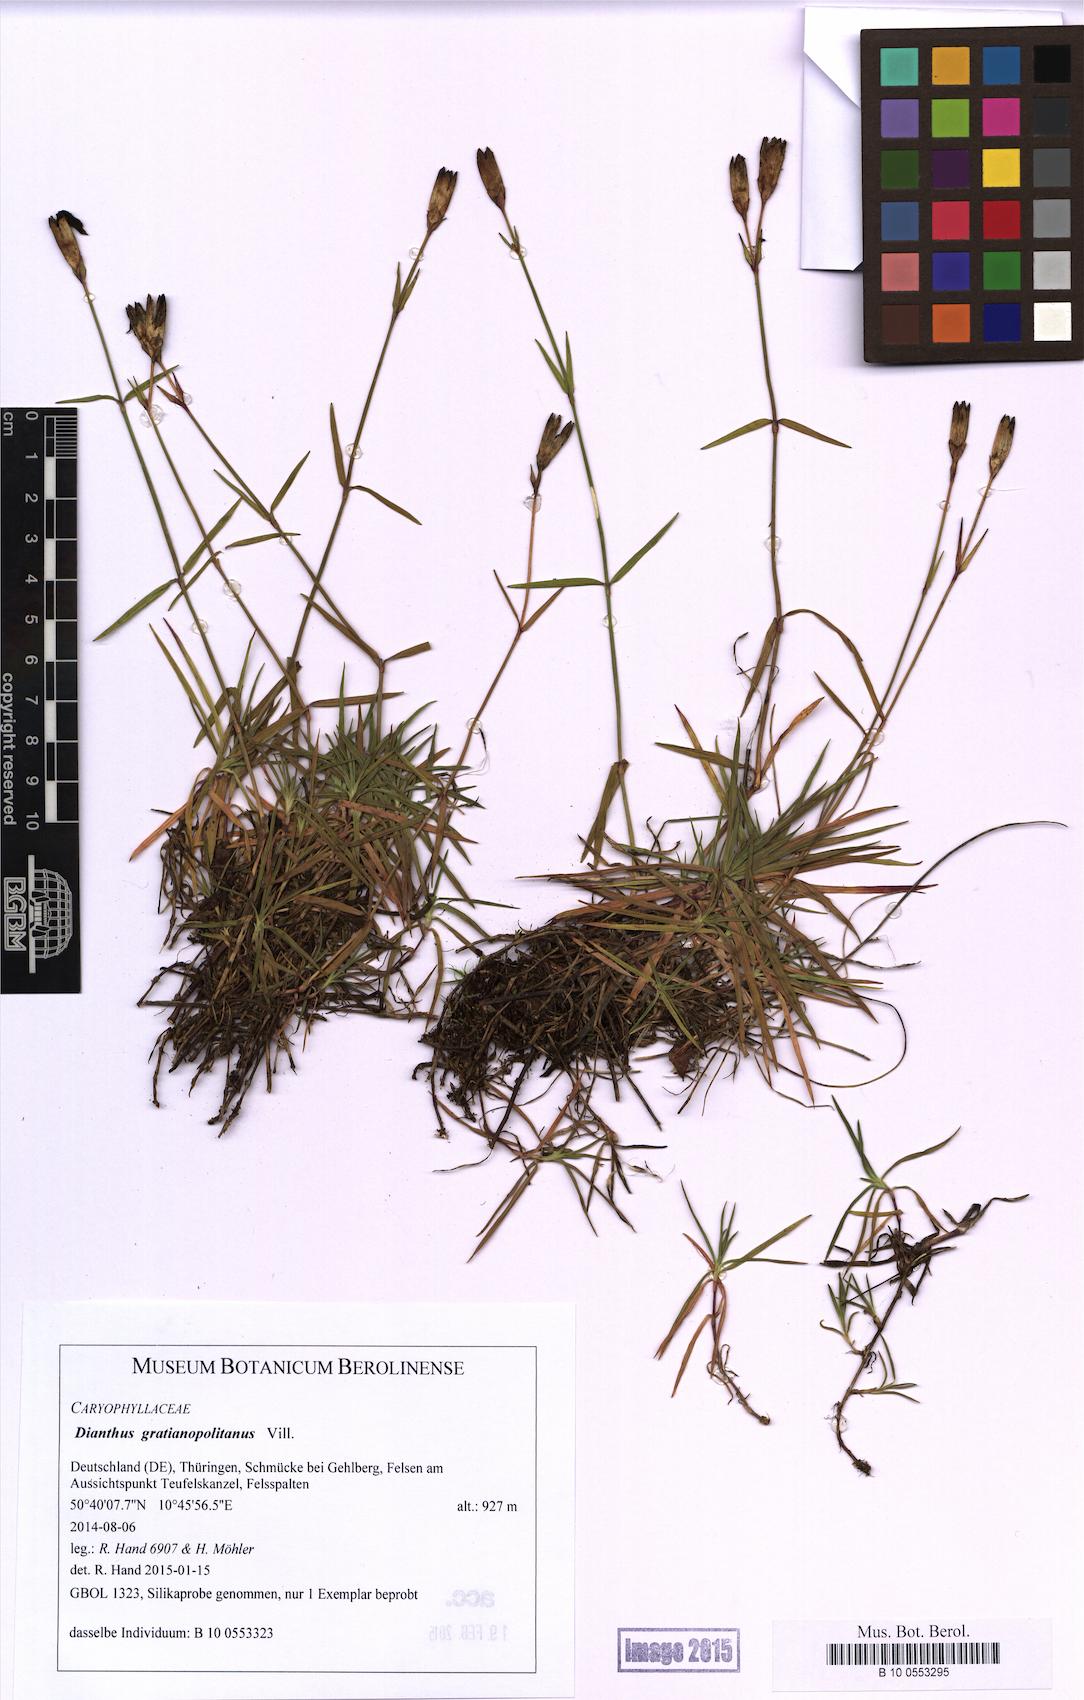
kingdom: Plantae
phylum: Tracheophyta
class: Magnoliopsida
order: Caryophyllales
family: Caryophyllaceae
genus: Dianthus
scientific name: Dianthus gratianopolitanus
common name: Cheddar pink
